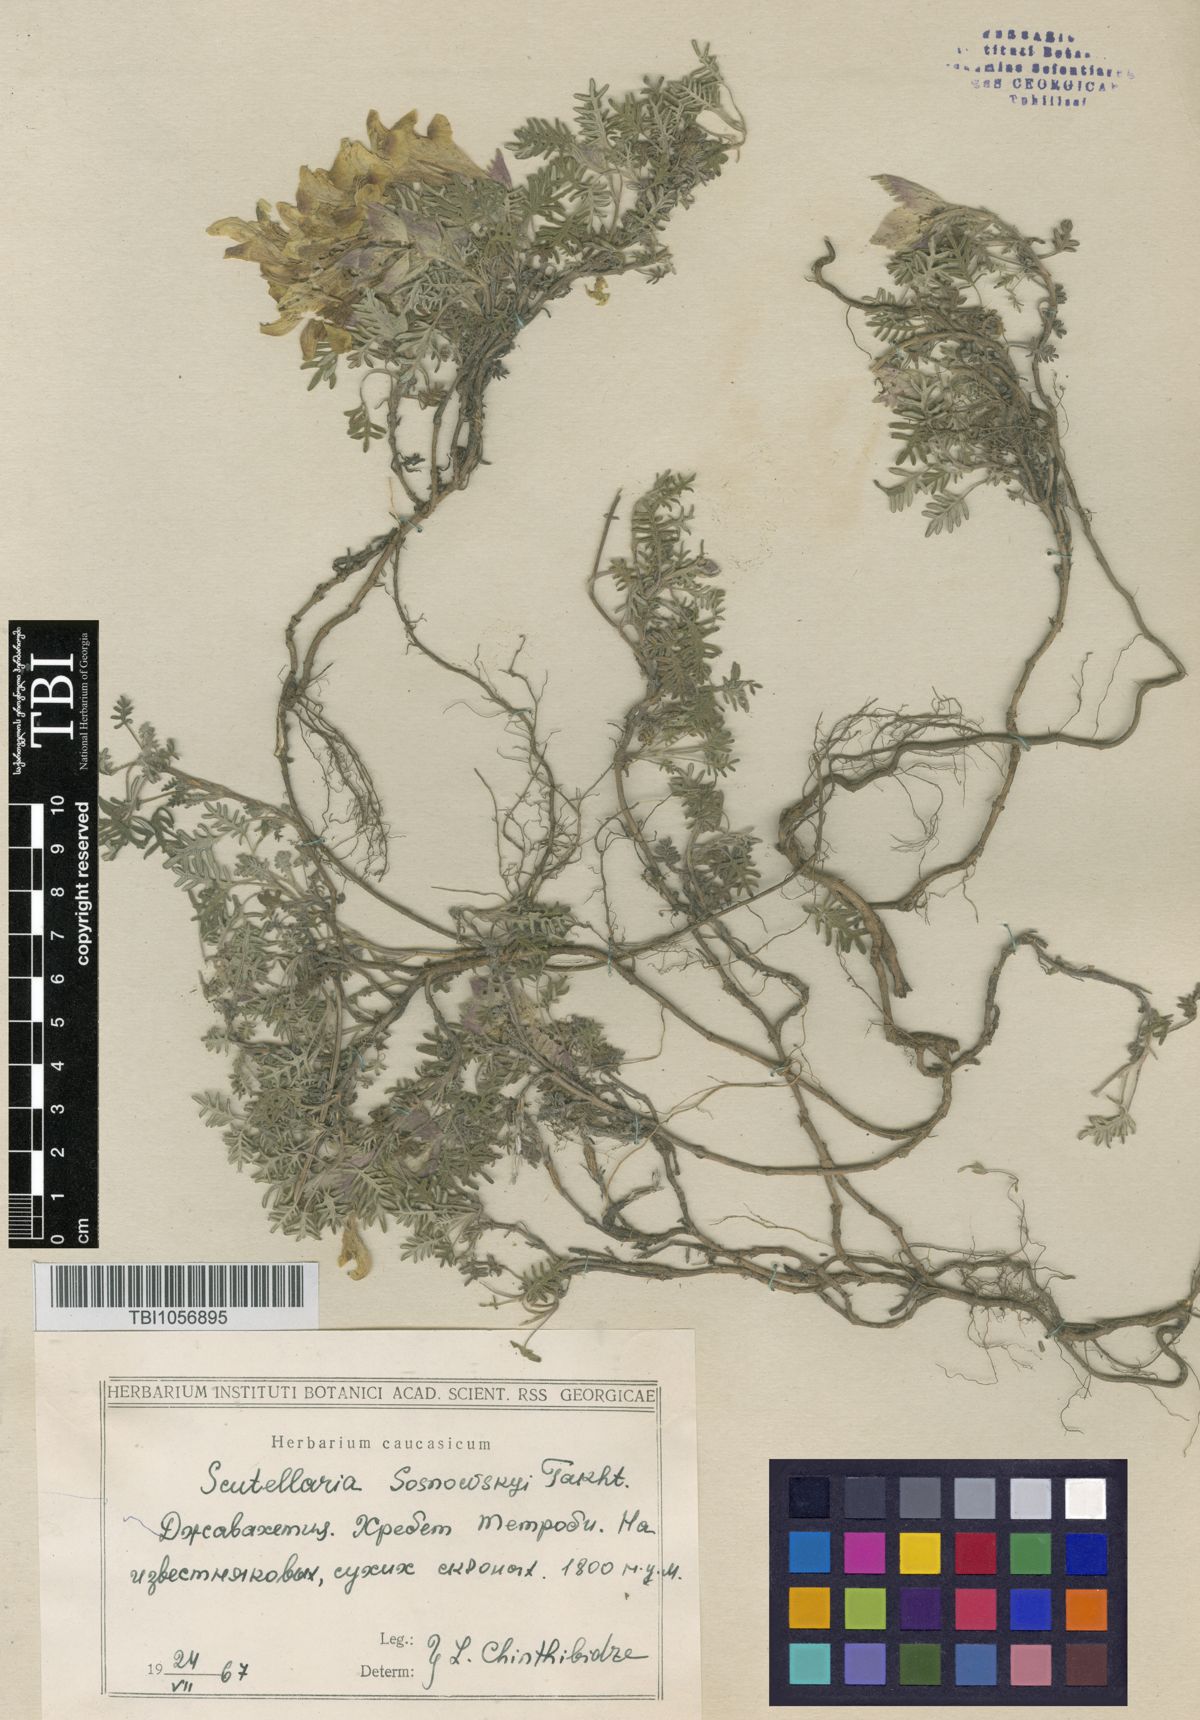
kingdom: Plantae
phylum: Tracheophyta
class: Magnoliopsida
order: Lamiales
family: Lamiaceae
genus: Scutellaria
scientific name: Scutellaria sosnowskyi
